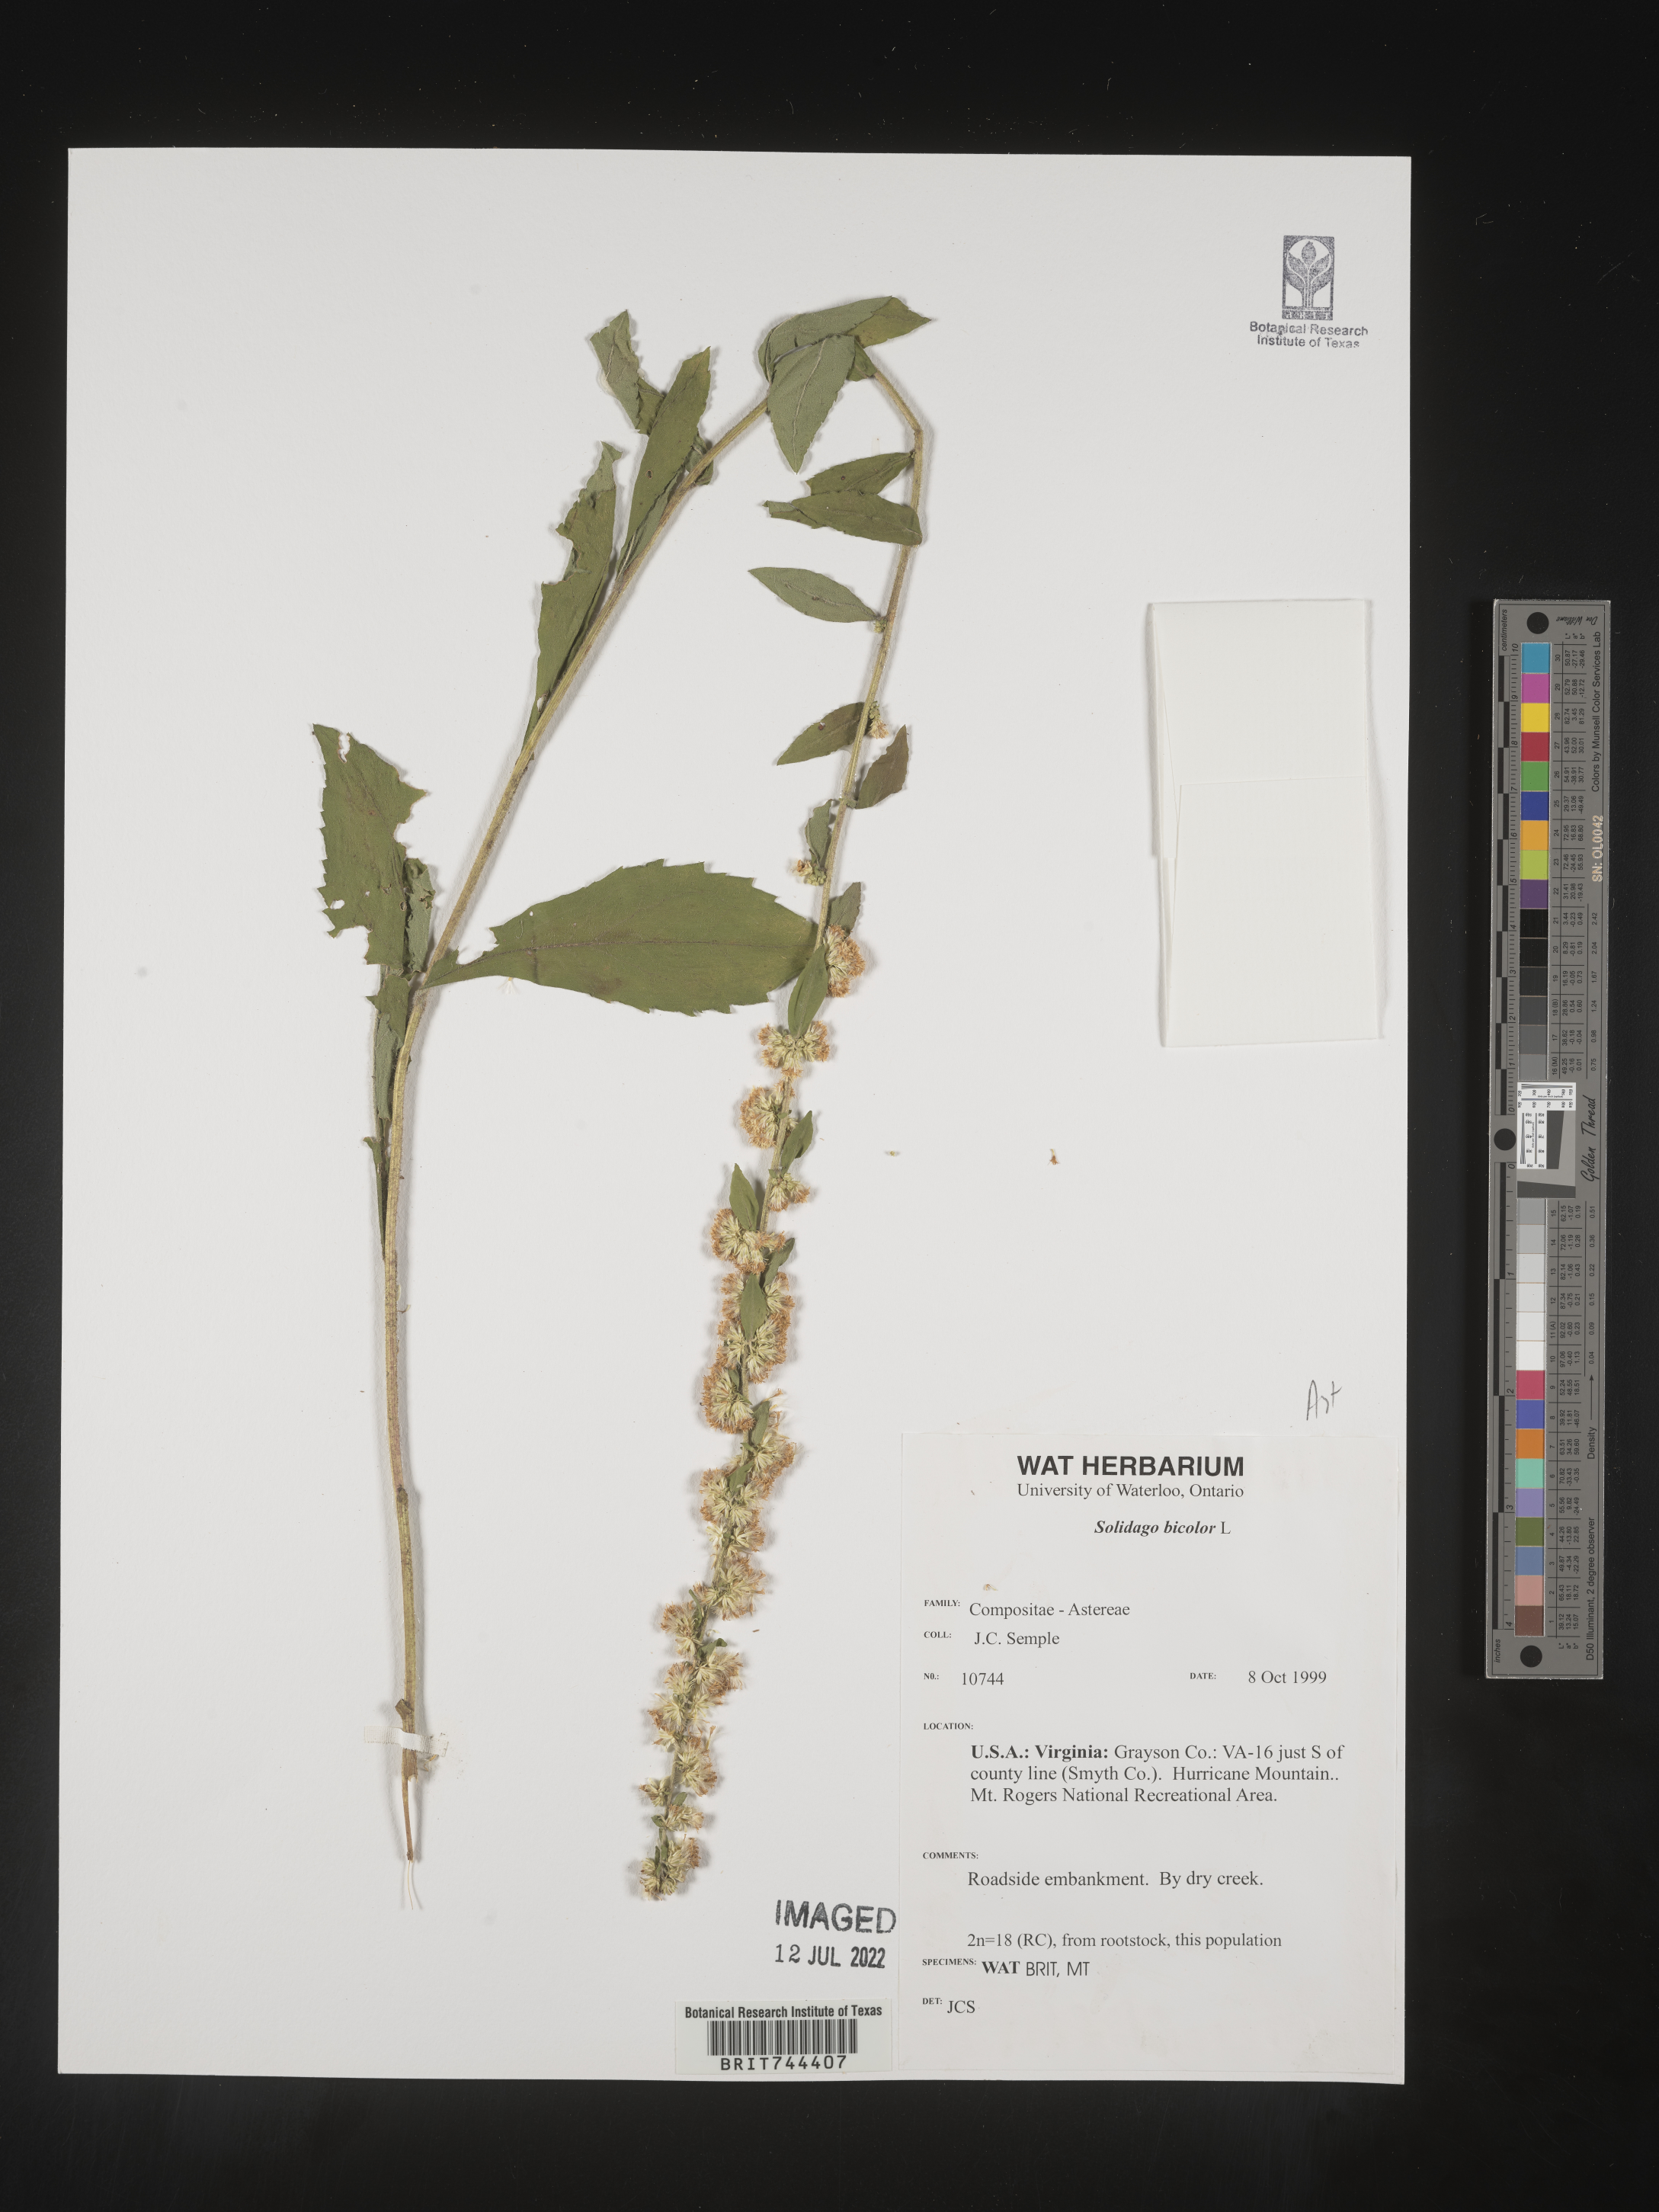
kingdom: Plantae
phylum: Tracheophyta
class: Magnoliopsida
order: Asterales
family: Asteraceae
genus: Solidago
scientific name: Solidago bicolor
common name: Silverrod
